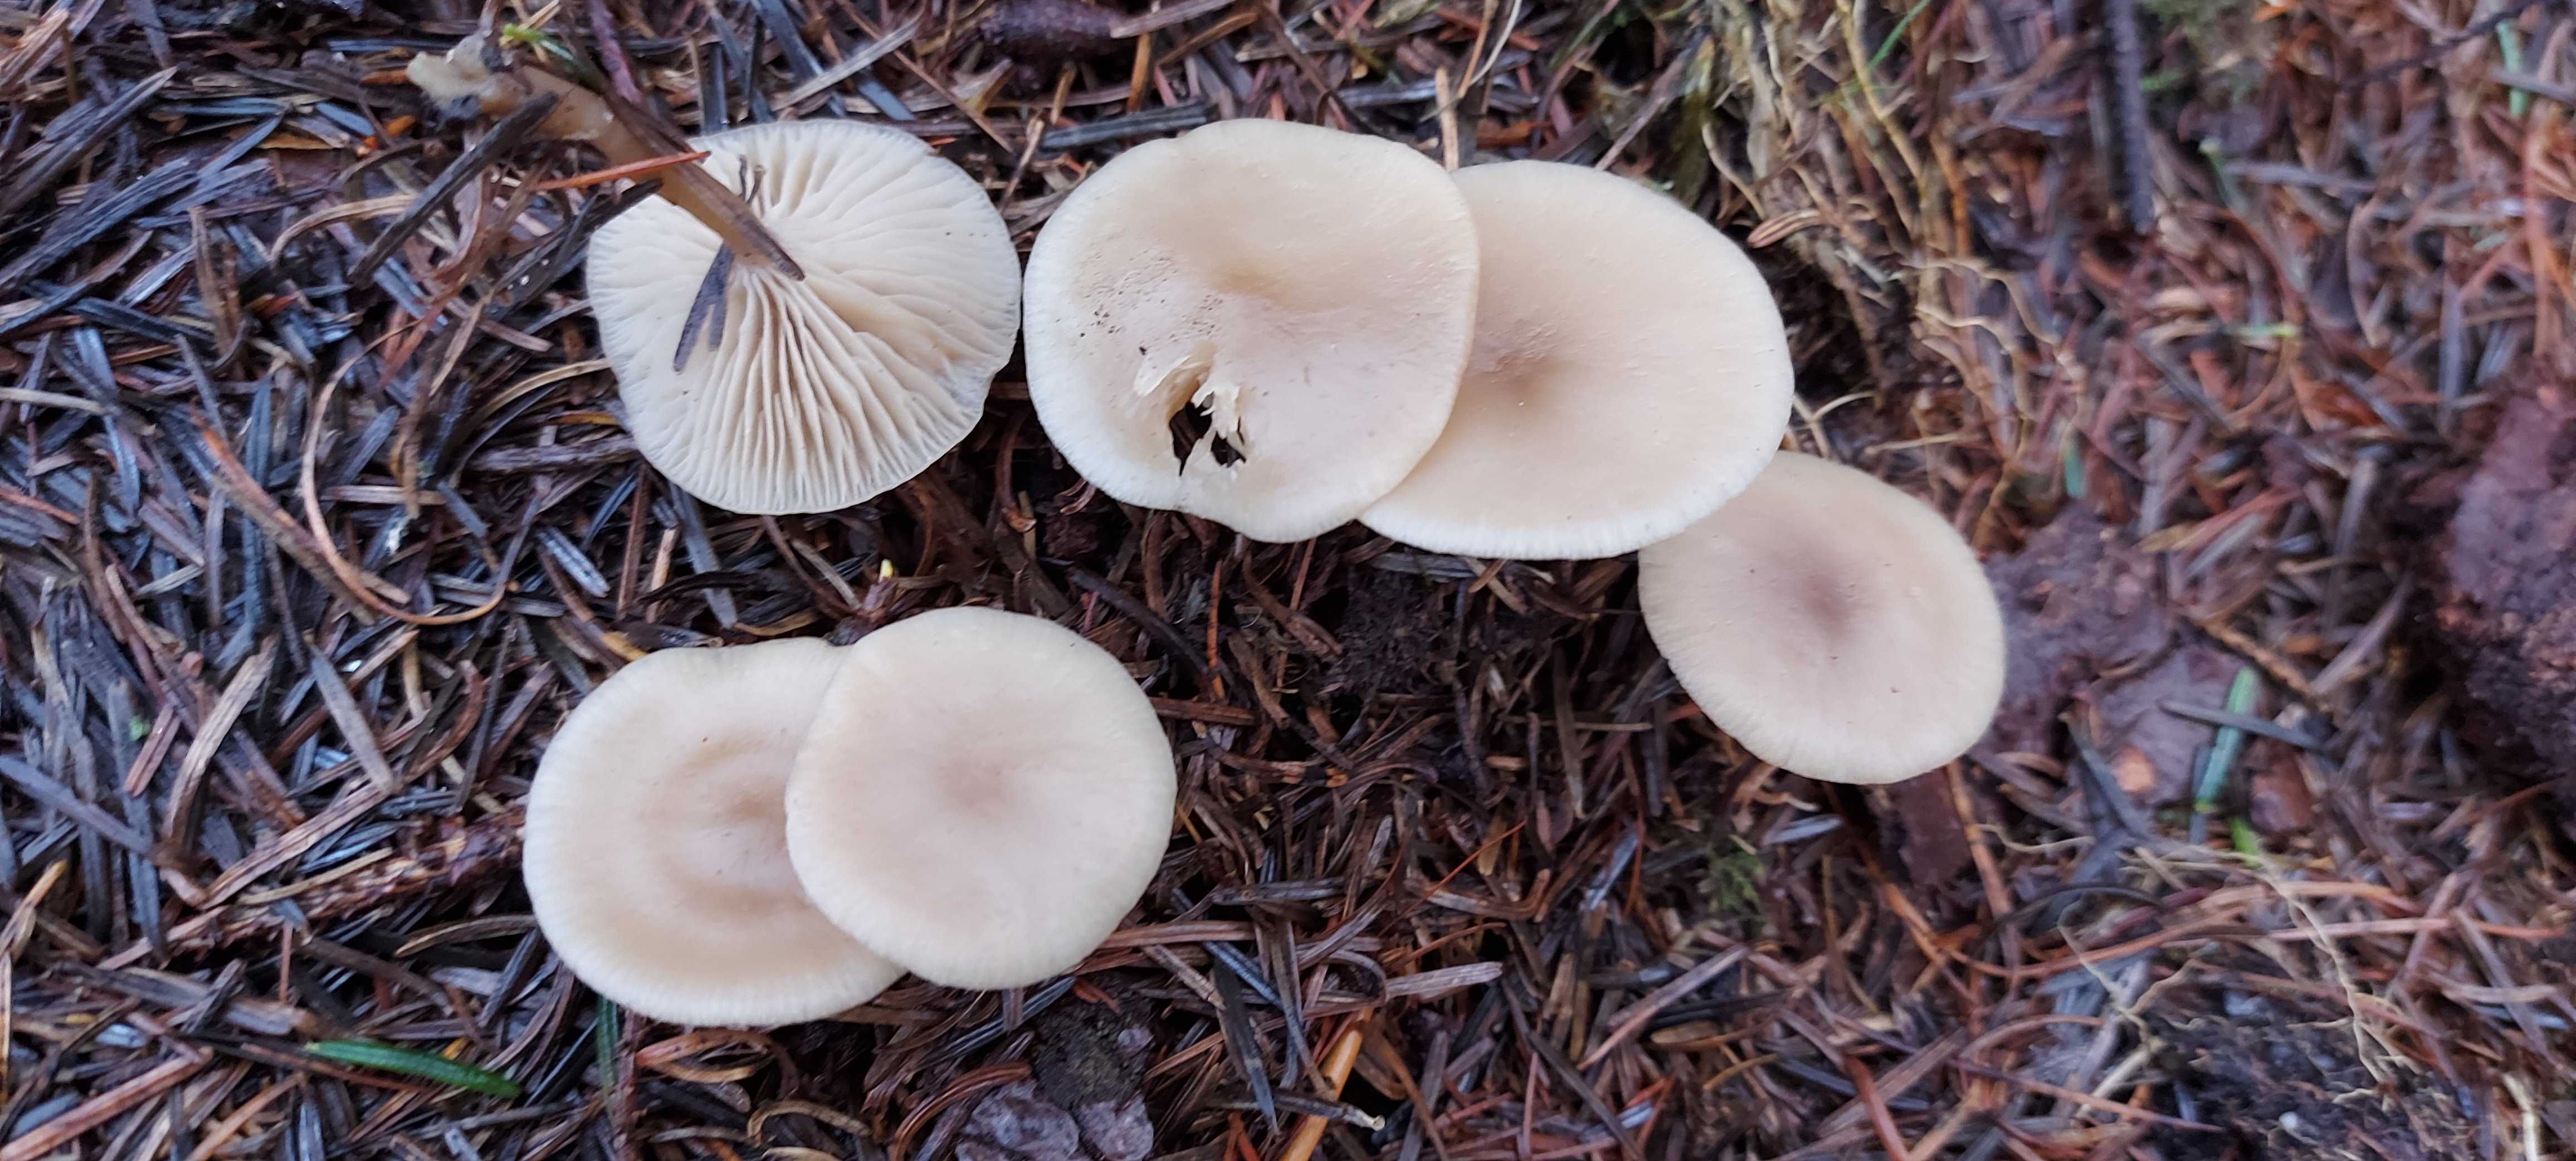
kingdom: Fungi
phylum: Basidiomycota
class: Agaricomycetes
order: Agaricales
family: Tricholomataceae
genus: Clitocybe
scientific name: Clitocybe fragrans
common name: vellugtende tragthat
